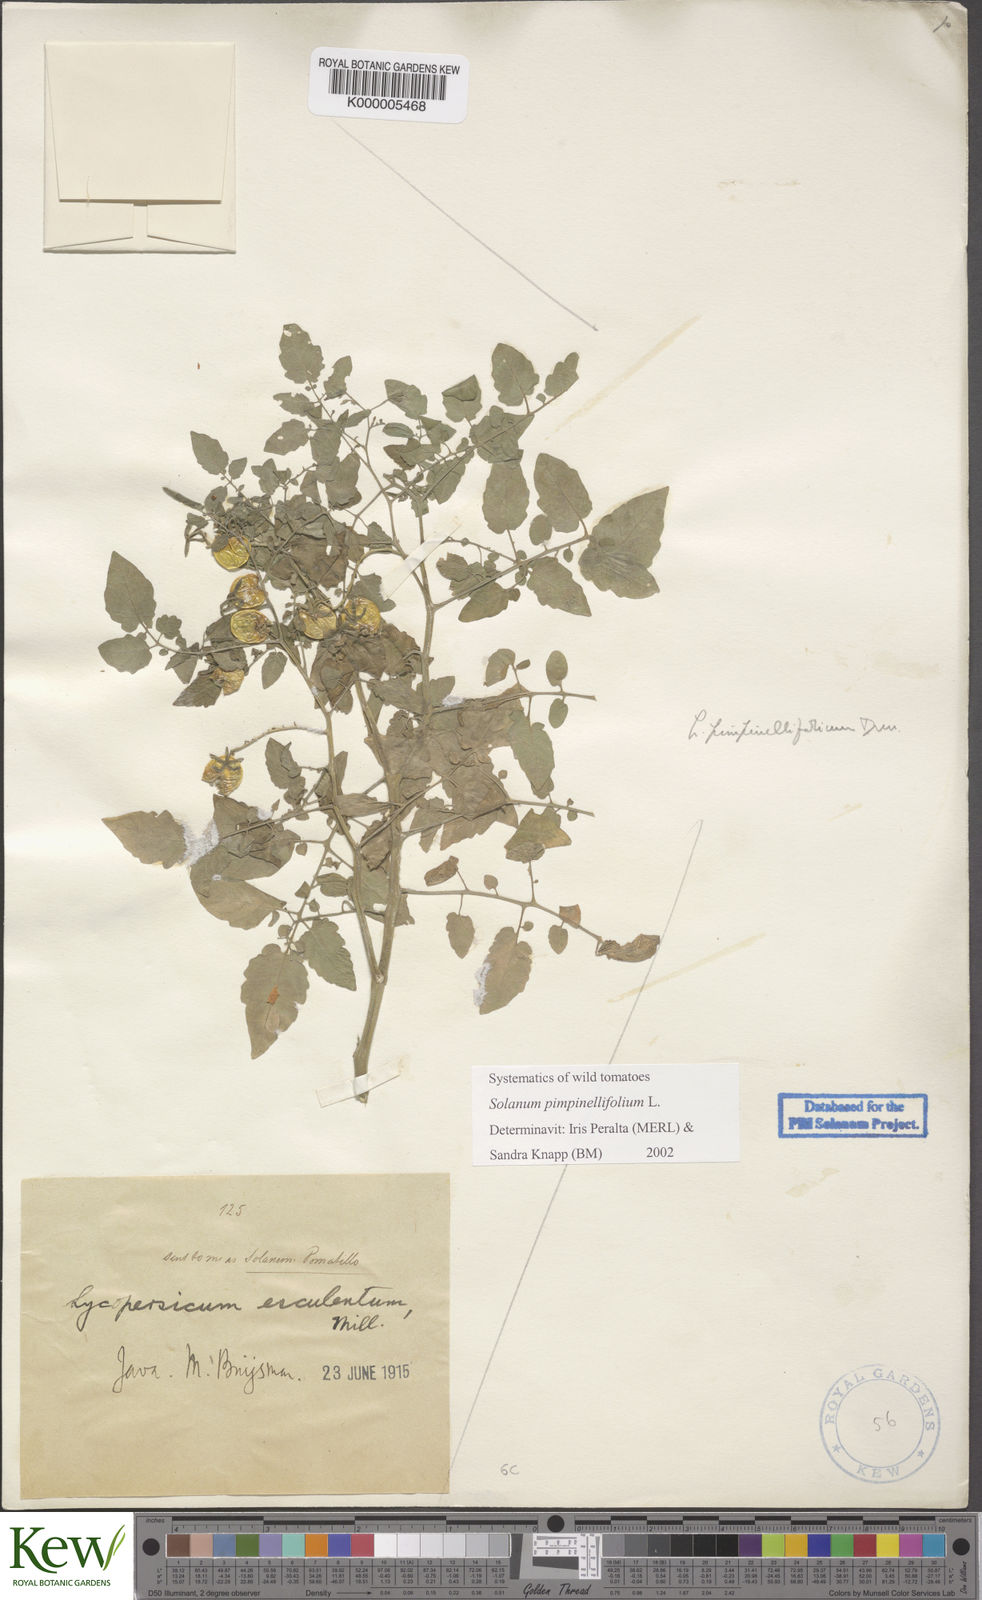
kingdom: Plantae
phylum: Tracheophyta
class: Magnoliopsida
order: Solanales
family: Solanaceae
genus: Solanum
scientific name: Solanum pimpinellifolium
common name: Currant-tomato
